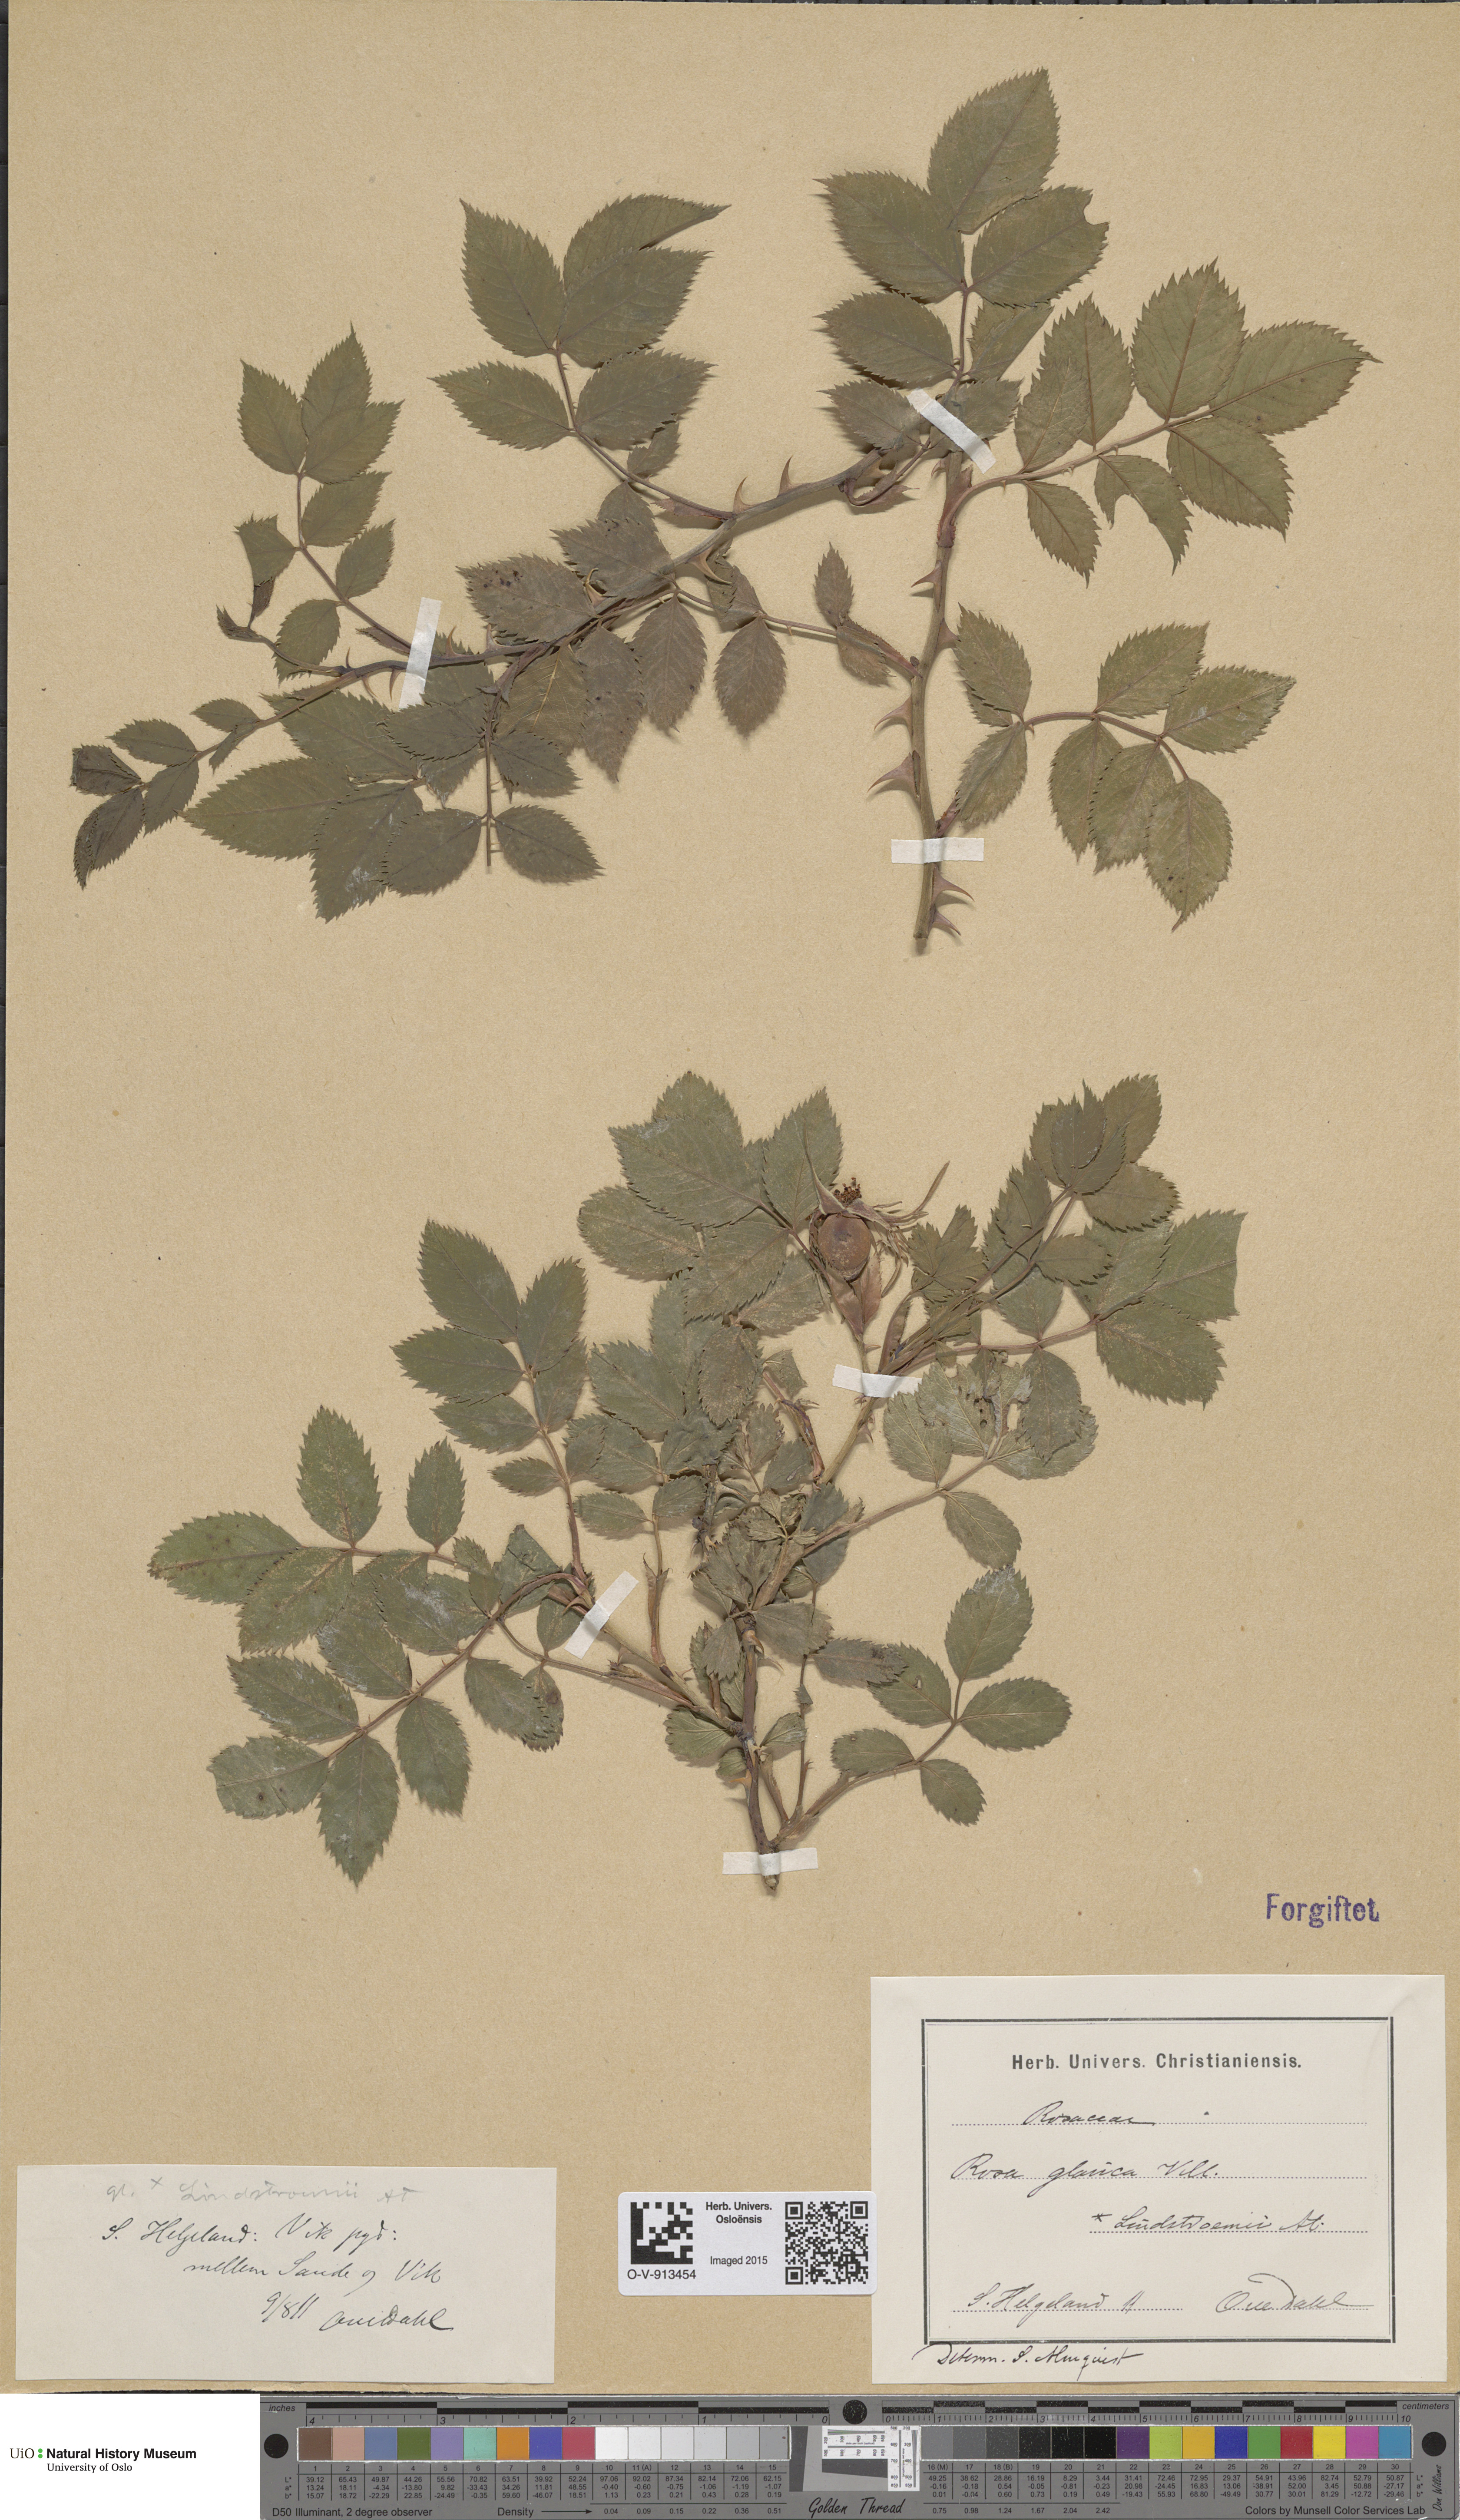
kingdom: Plantae
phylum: Tracheophyta
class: Magnoliopsida
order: Rosales
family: Rosaceae
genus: Rosa
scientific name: Rosa glauca
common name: Redleaf rose
